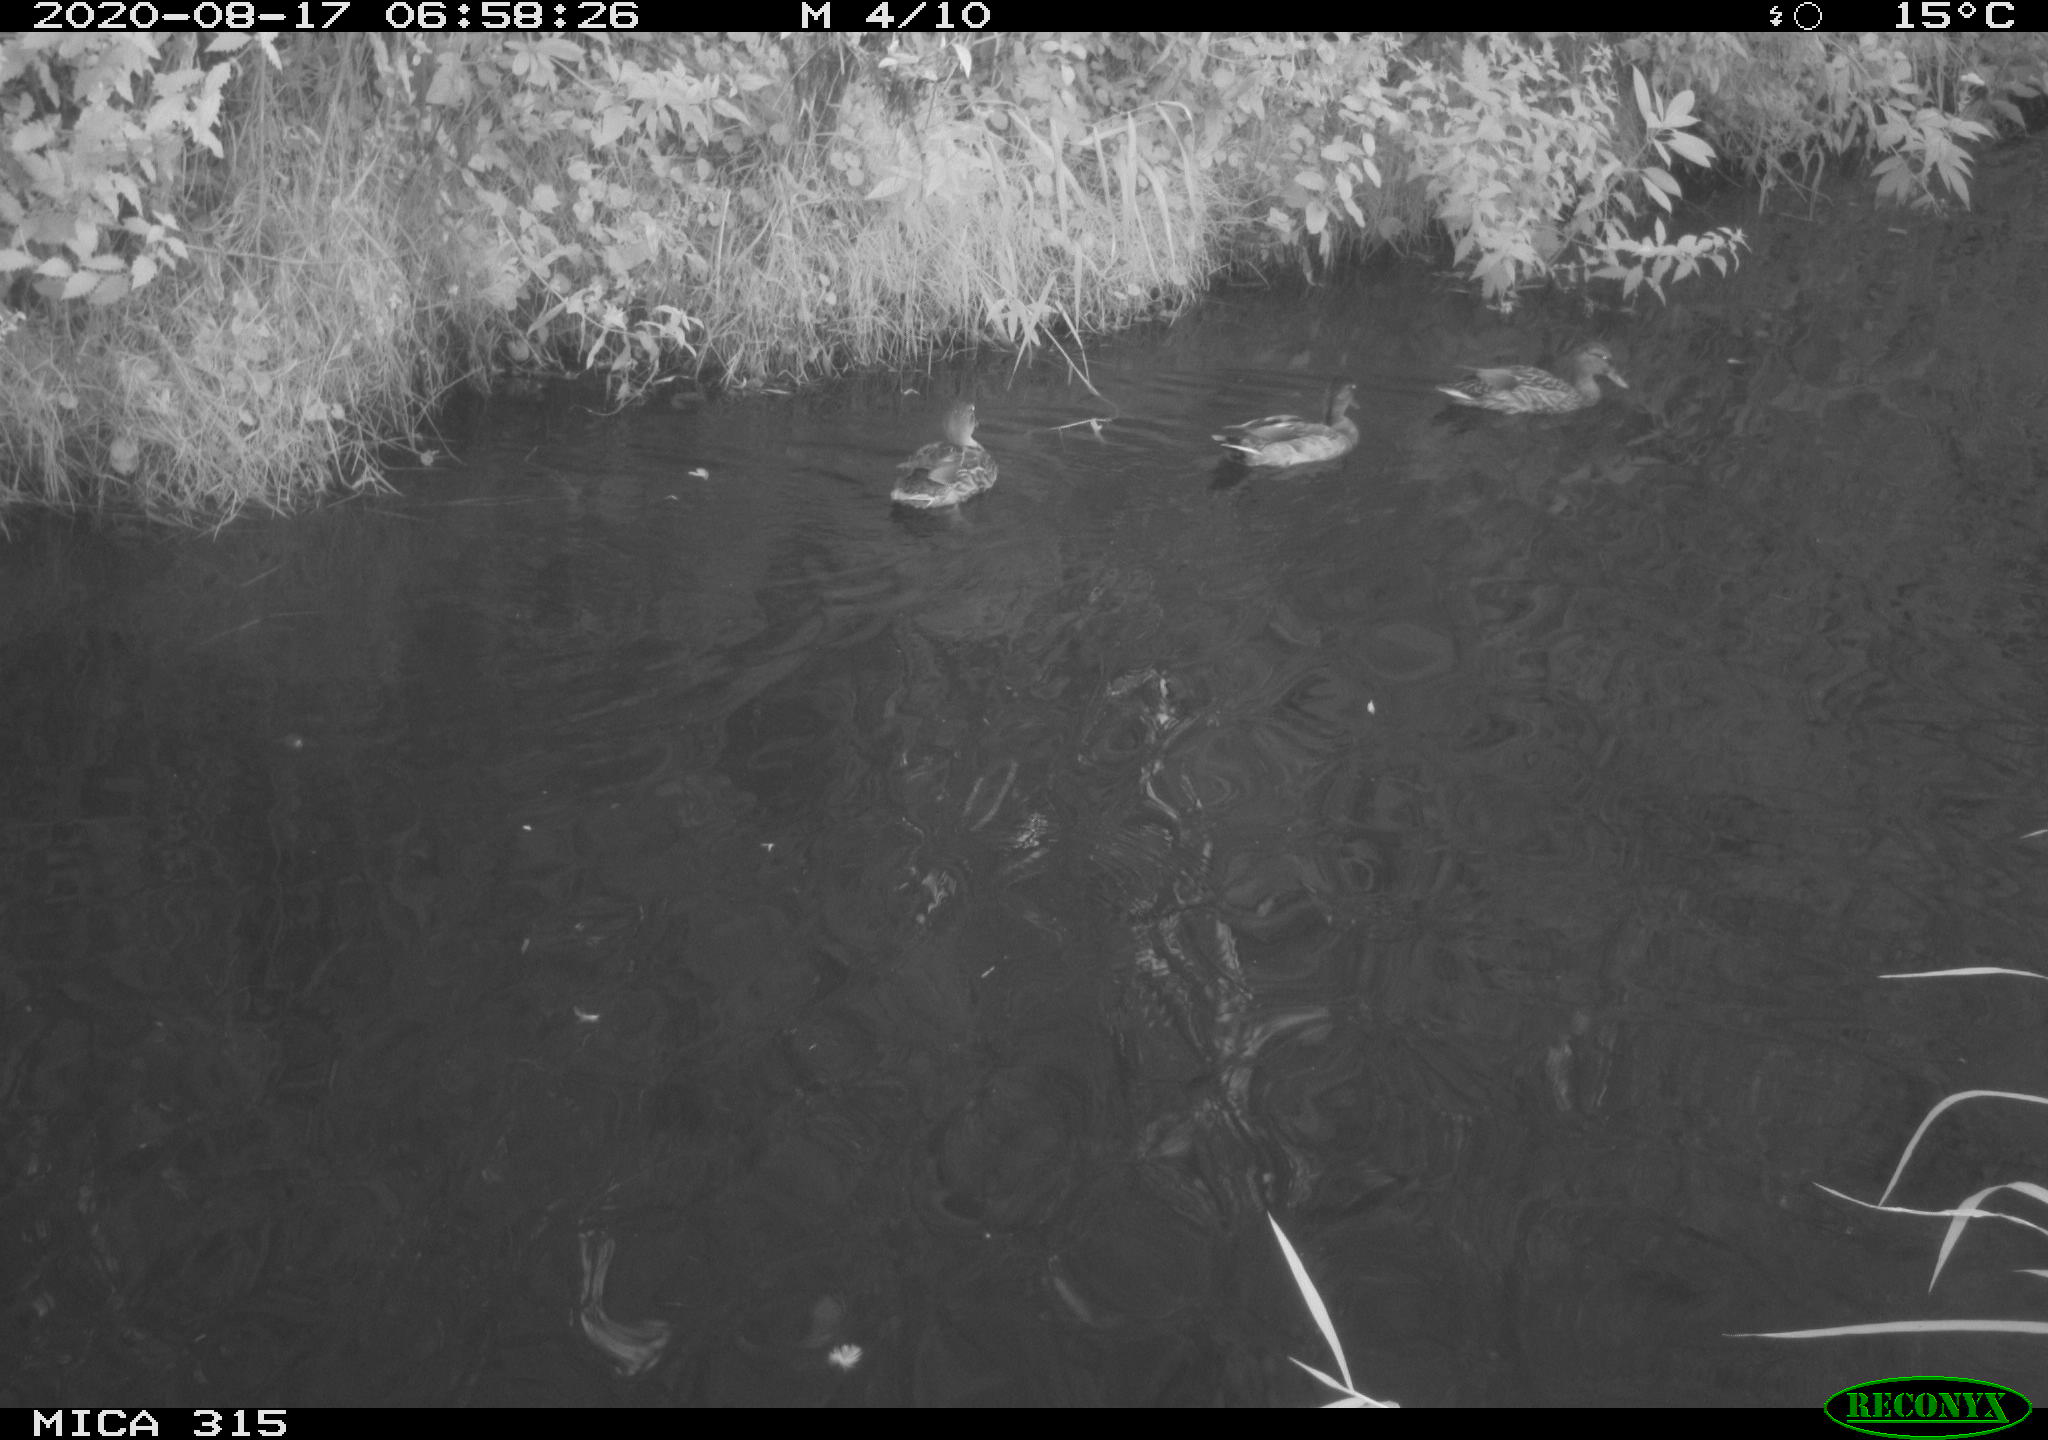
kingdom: Animalia
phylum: Chordata
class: Aves
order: Anseriformes
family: Anatidae
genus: Anas
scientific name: Anas platyrhynchos
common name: Mallard
